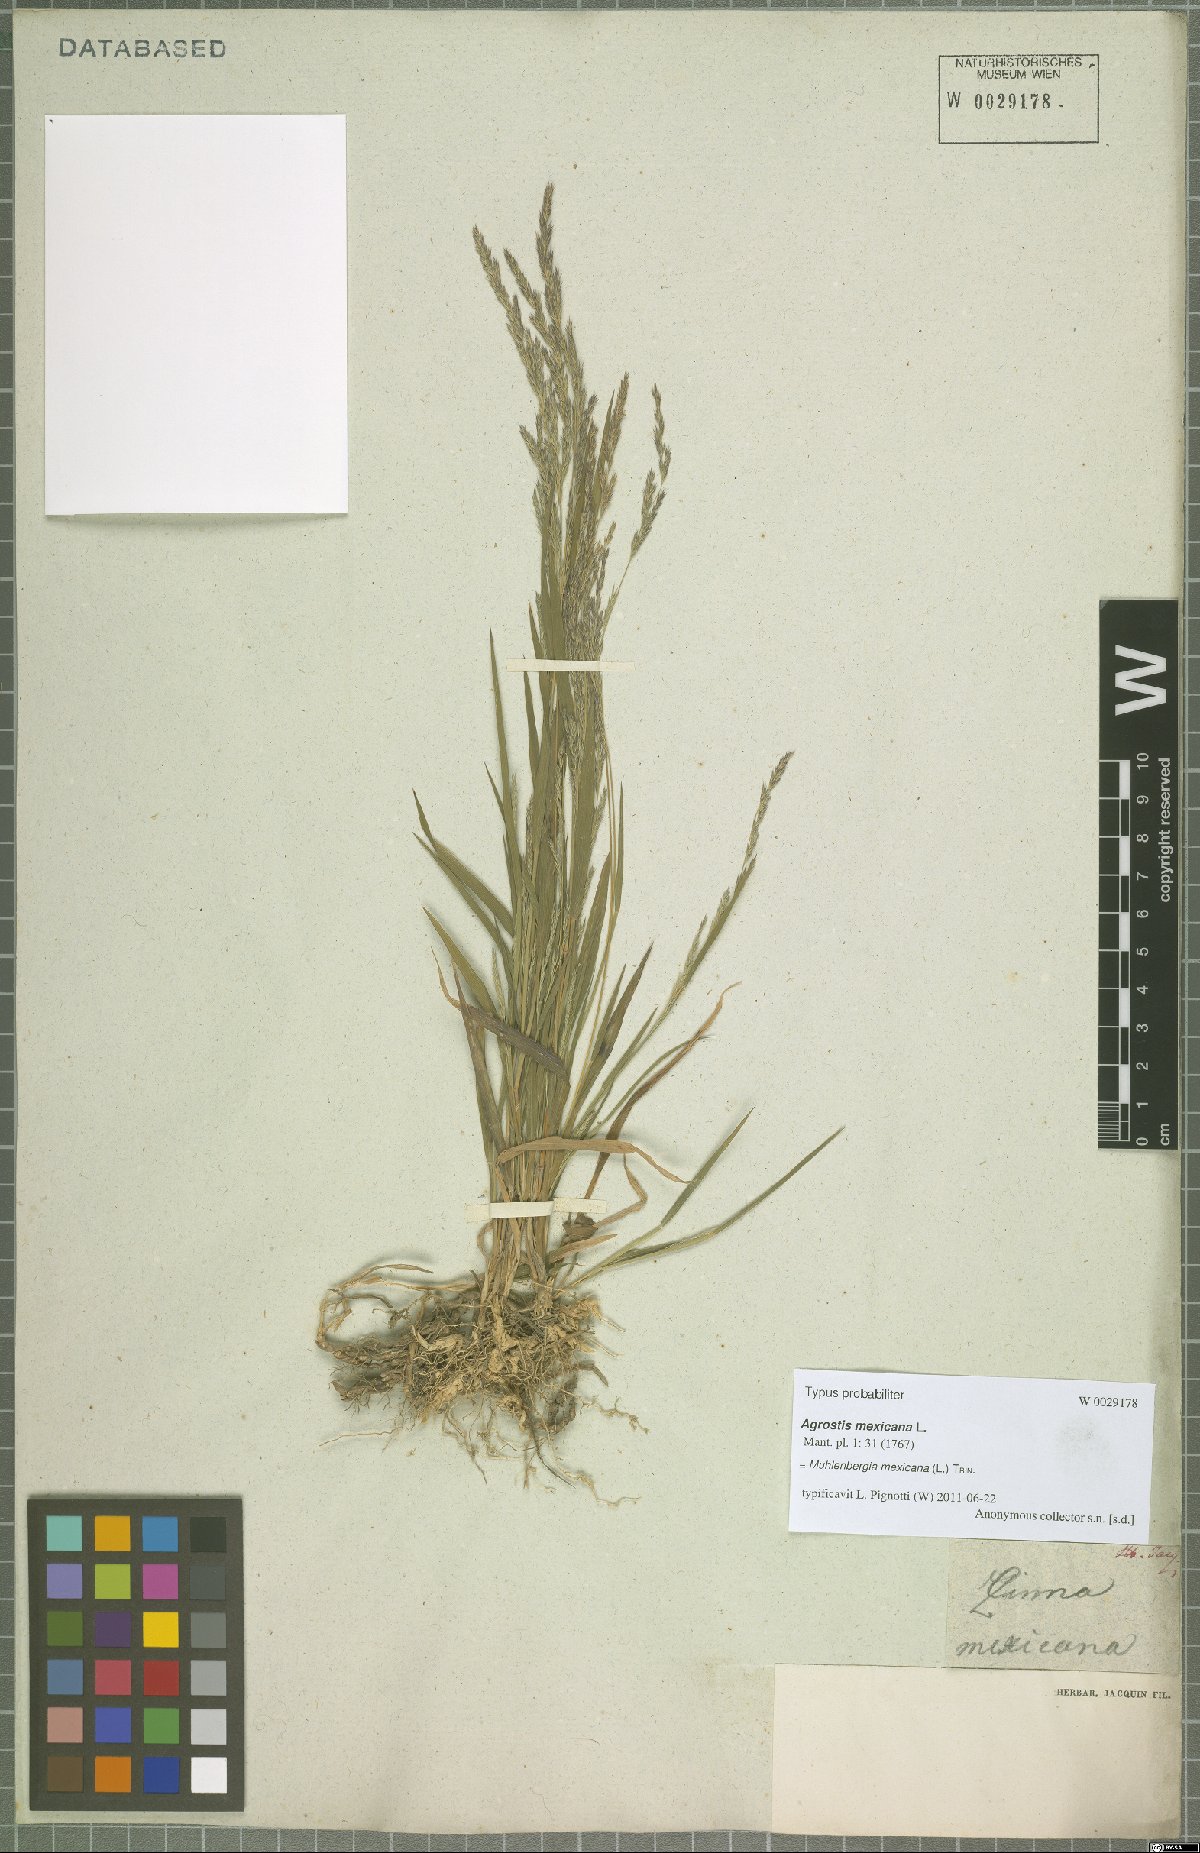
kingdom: Plantae
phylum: Tracheophyta
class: Liliopsida
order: Poales
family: Poaceae
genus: Muhlenbergia
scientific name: Muhlenbergia mexicana
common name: Mexican muhly
